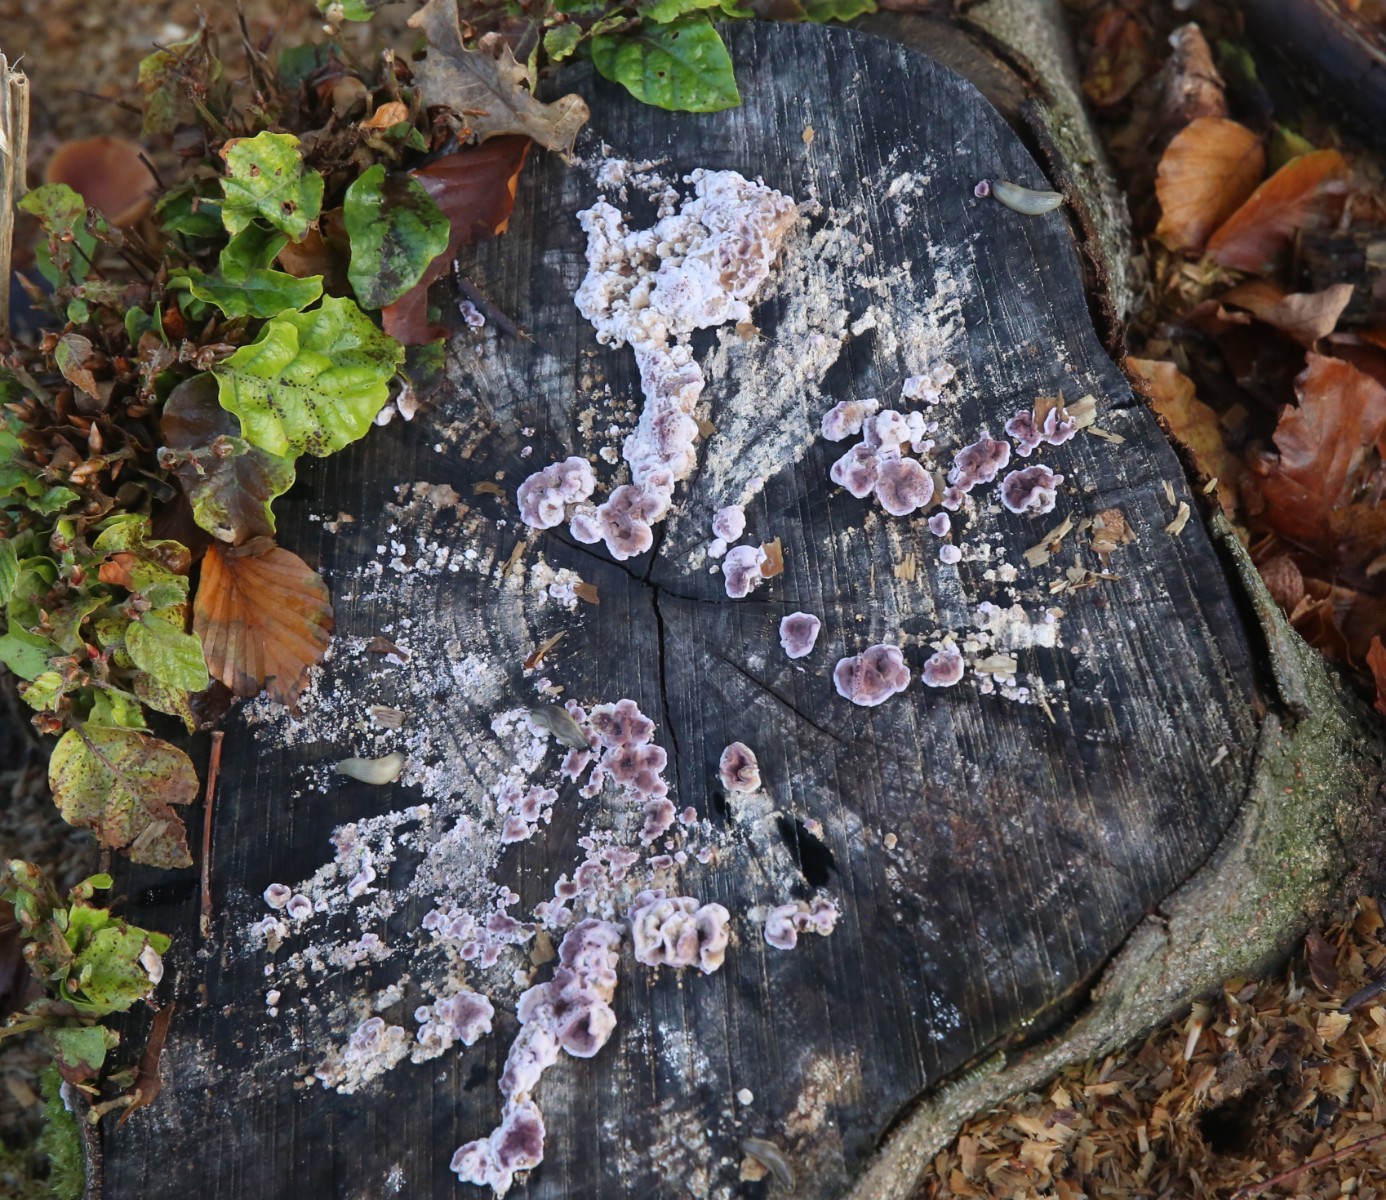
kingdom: Fungi
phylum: Basidiomycota
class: Agaricomycetes
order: Agaricales
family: Cyphellaceae
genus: Chondrostereum
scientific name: Chondrostereum
